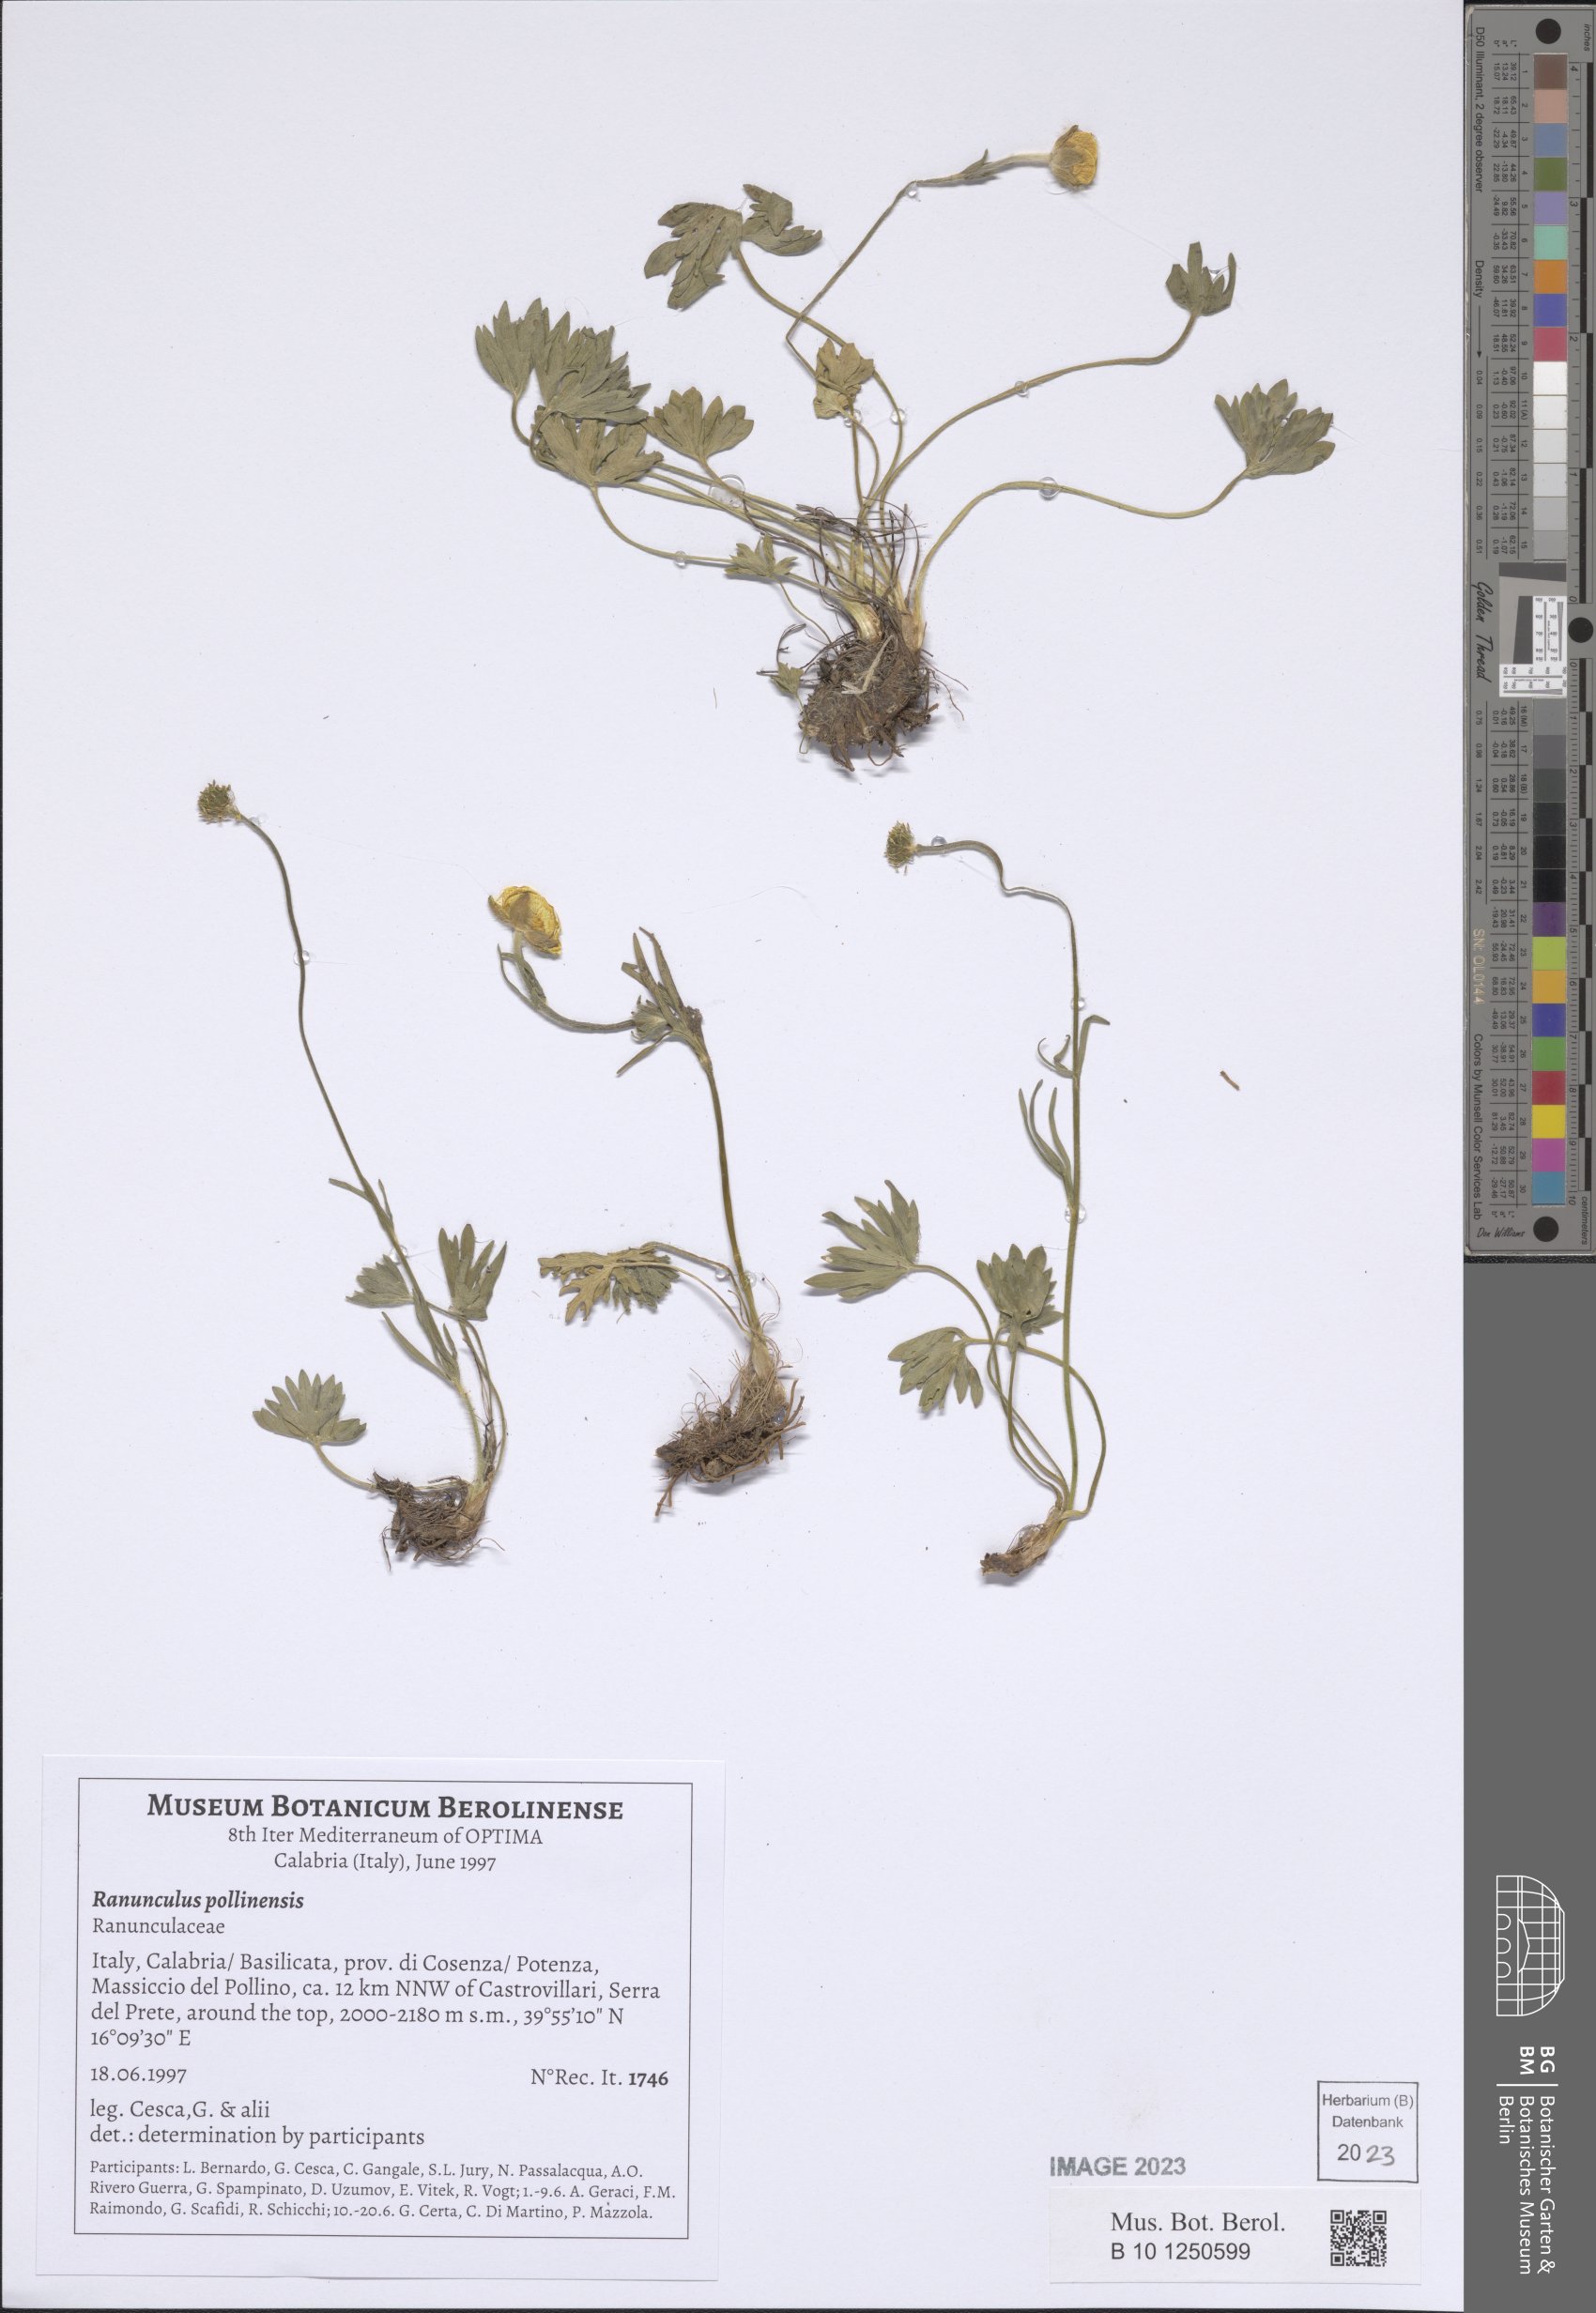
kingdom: Plantae
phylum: Tracheophyta
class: Magnoliopsida
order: Ranunculales
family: Ranunculaceae
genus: Ranunculus
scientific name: Ranunculus pollinensis
